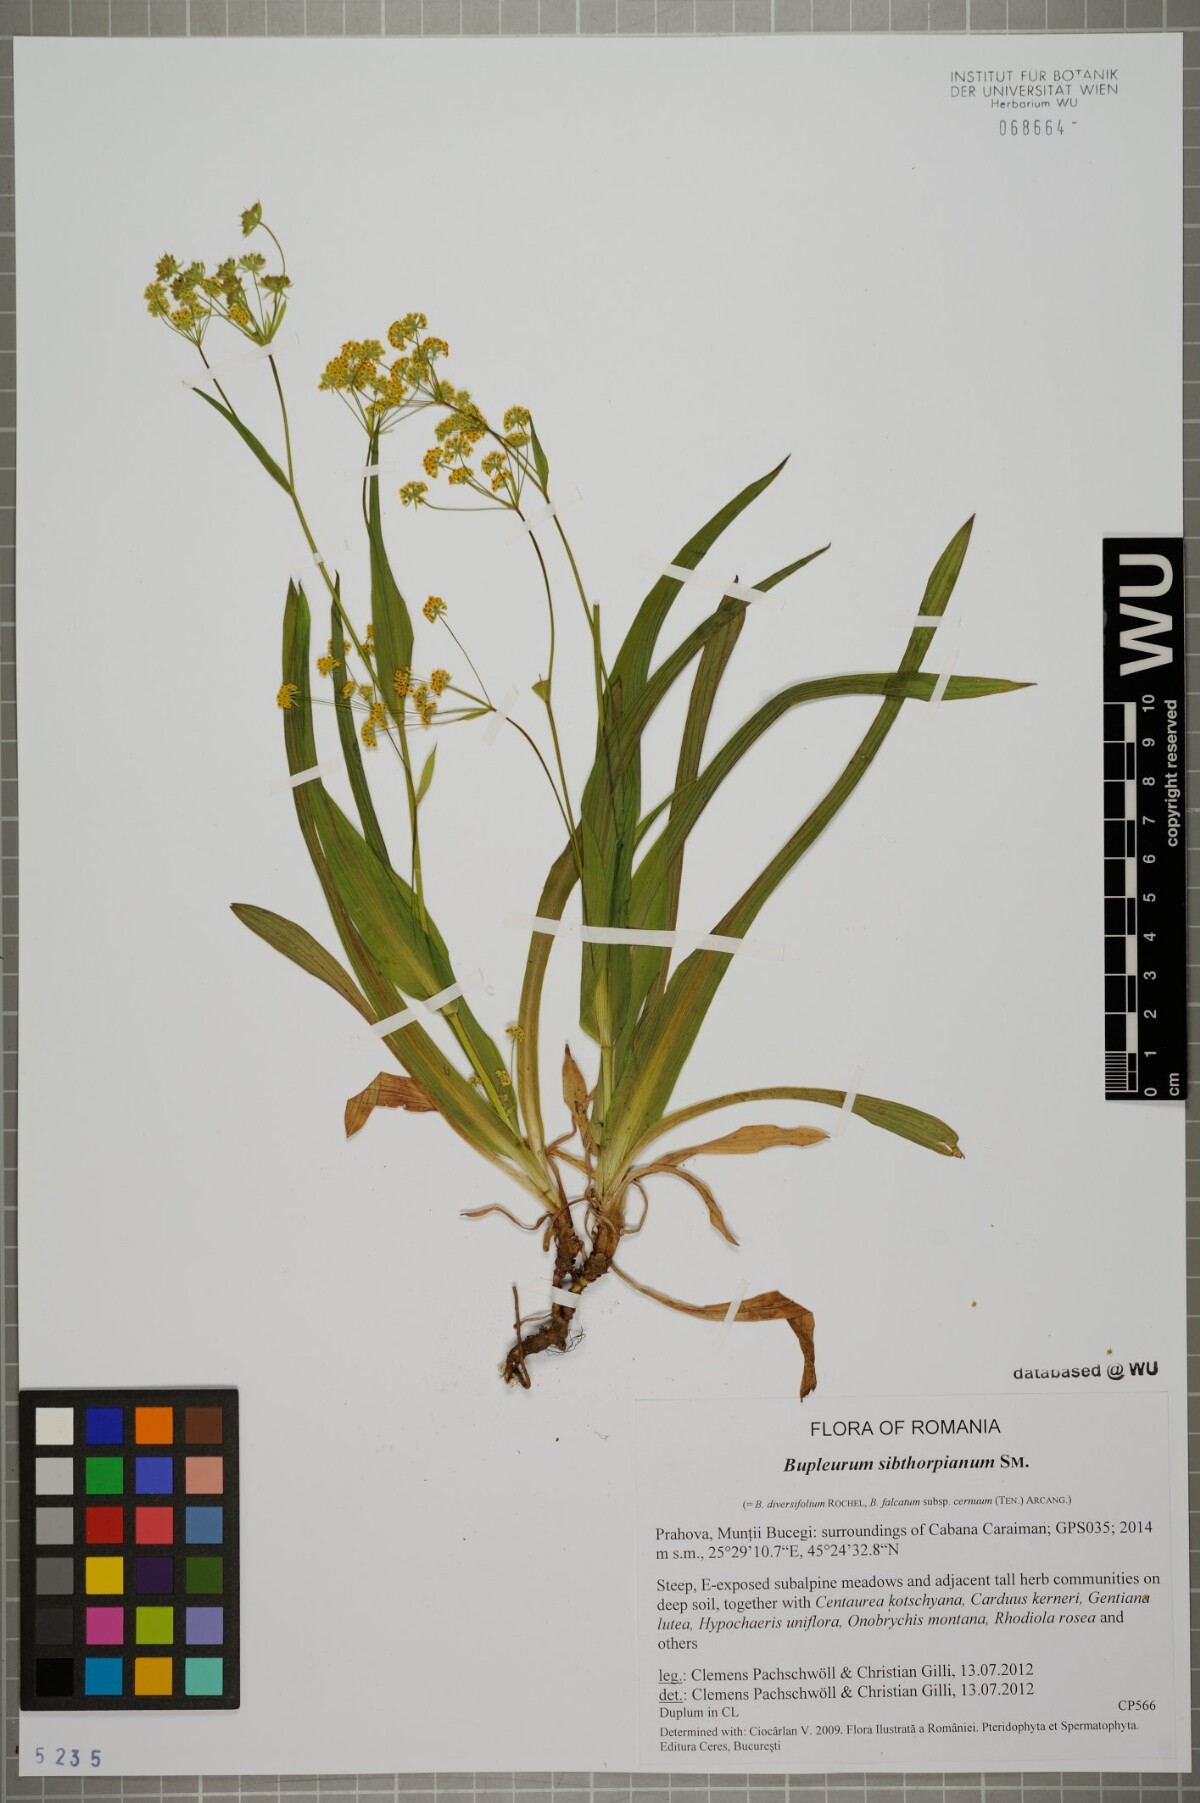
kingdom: Plantae
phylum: Tracheophyta
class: Magnoliopsida
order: Apiales
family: Apiaceae
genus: Bupleurum
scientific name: Bupleurum falcatum
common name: Sickle-leaved hare's-ear
